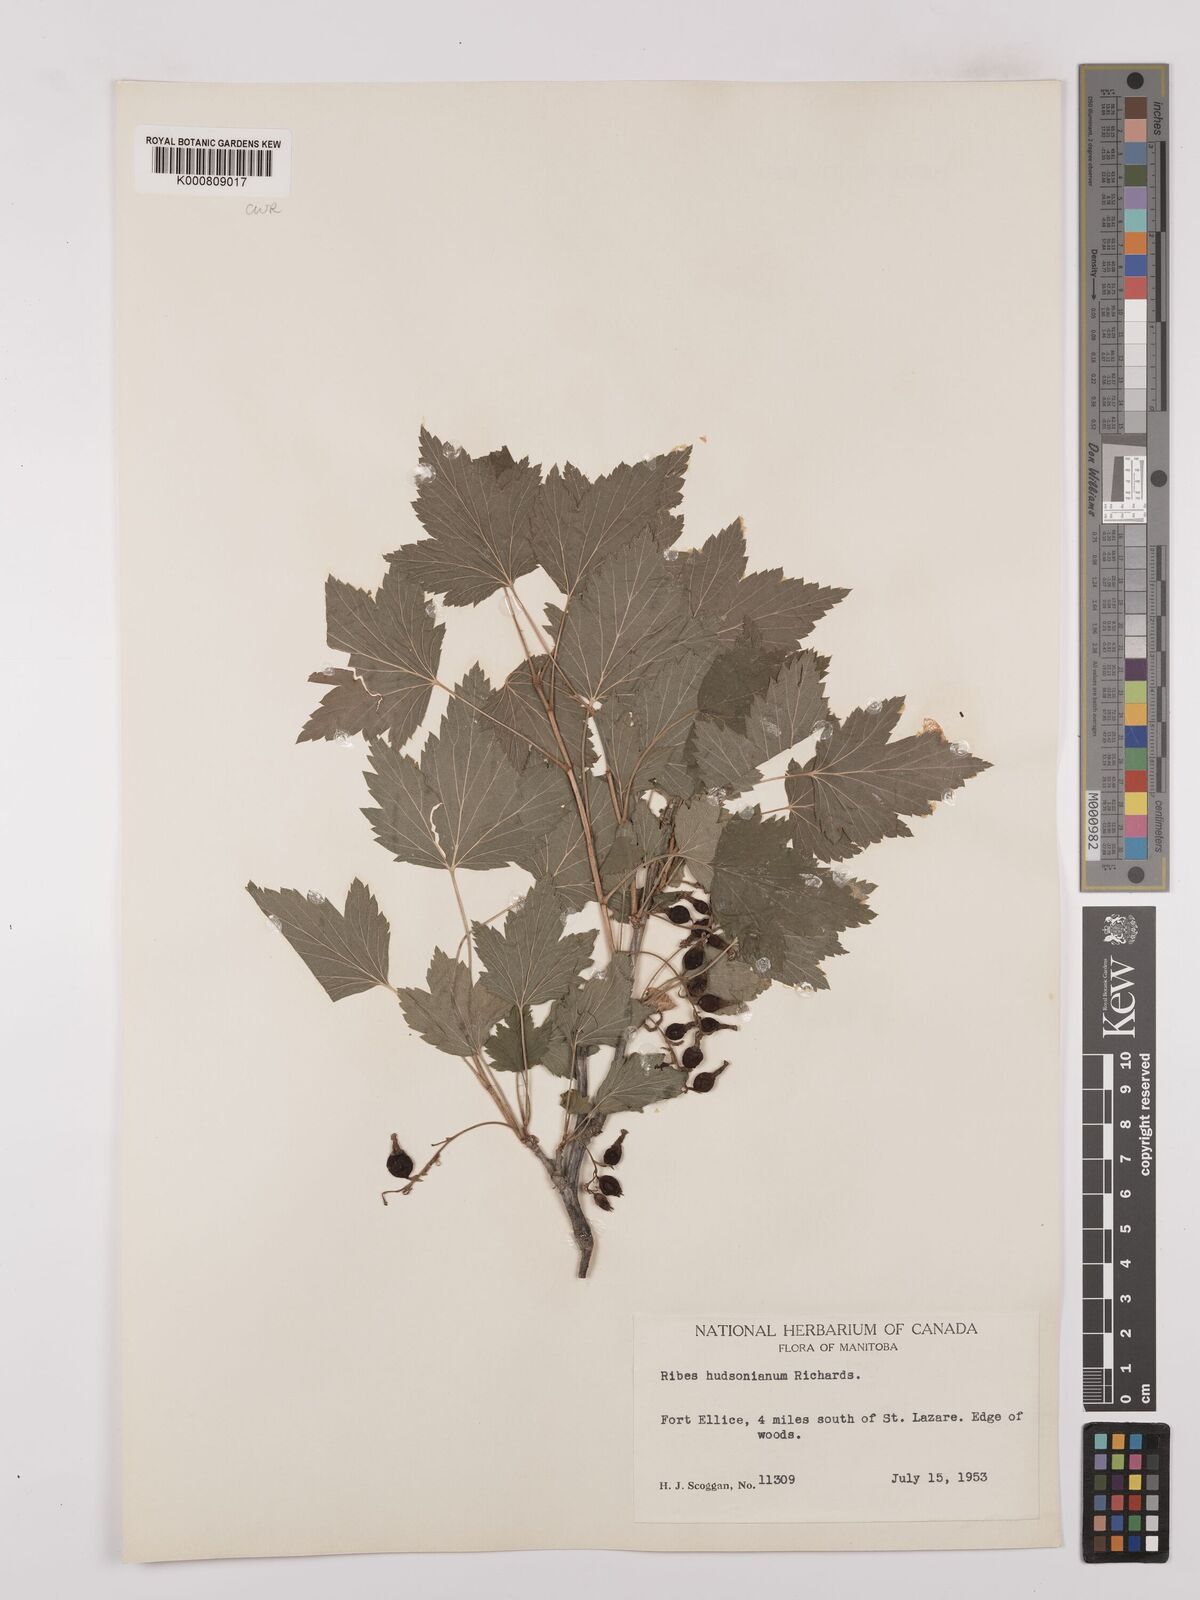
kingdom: Plantae
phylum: Tracheophyta
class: Magnoliopsida
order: Saxifragales
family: Grossulariaceae
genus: Ribes
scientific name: Ribes hudsonianum
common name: Northern black currant
